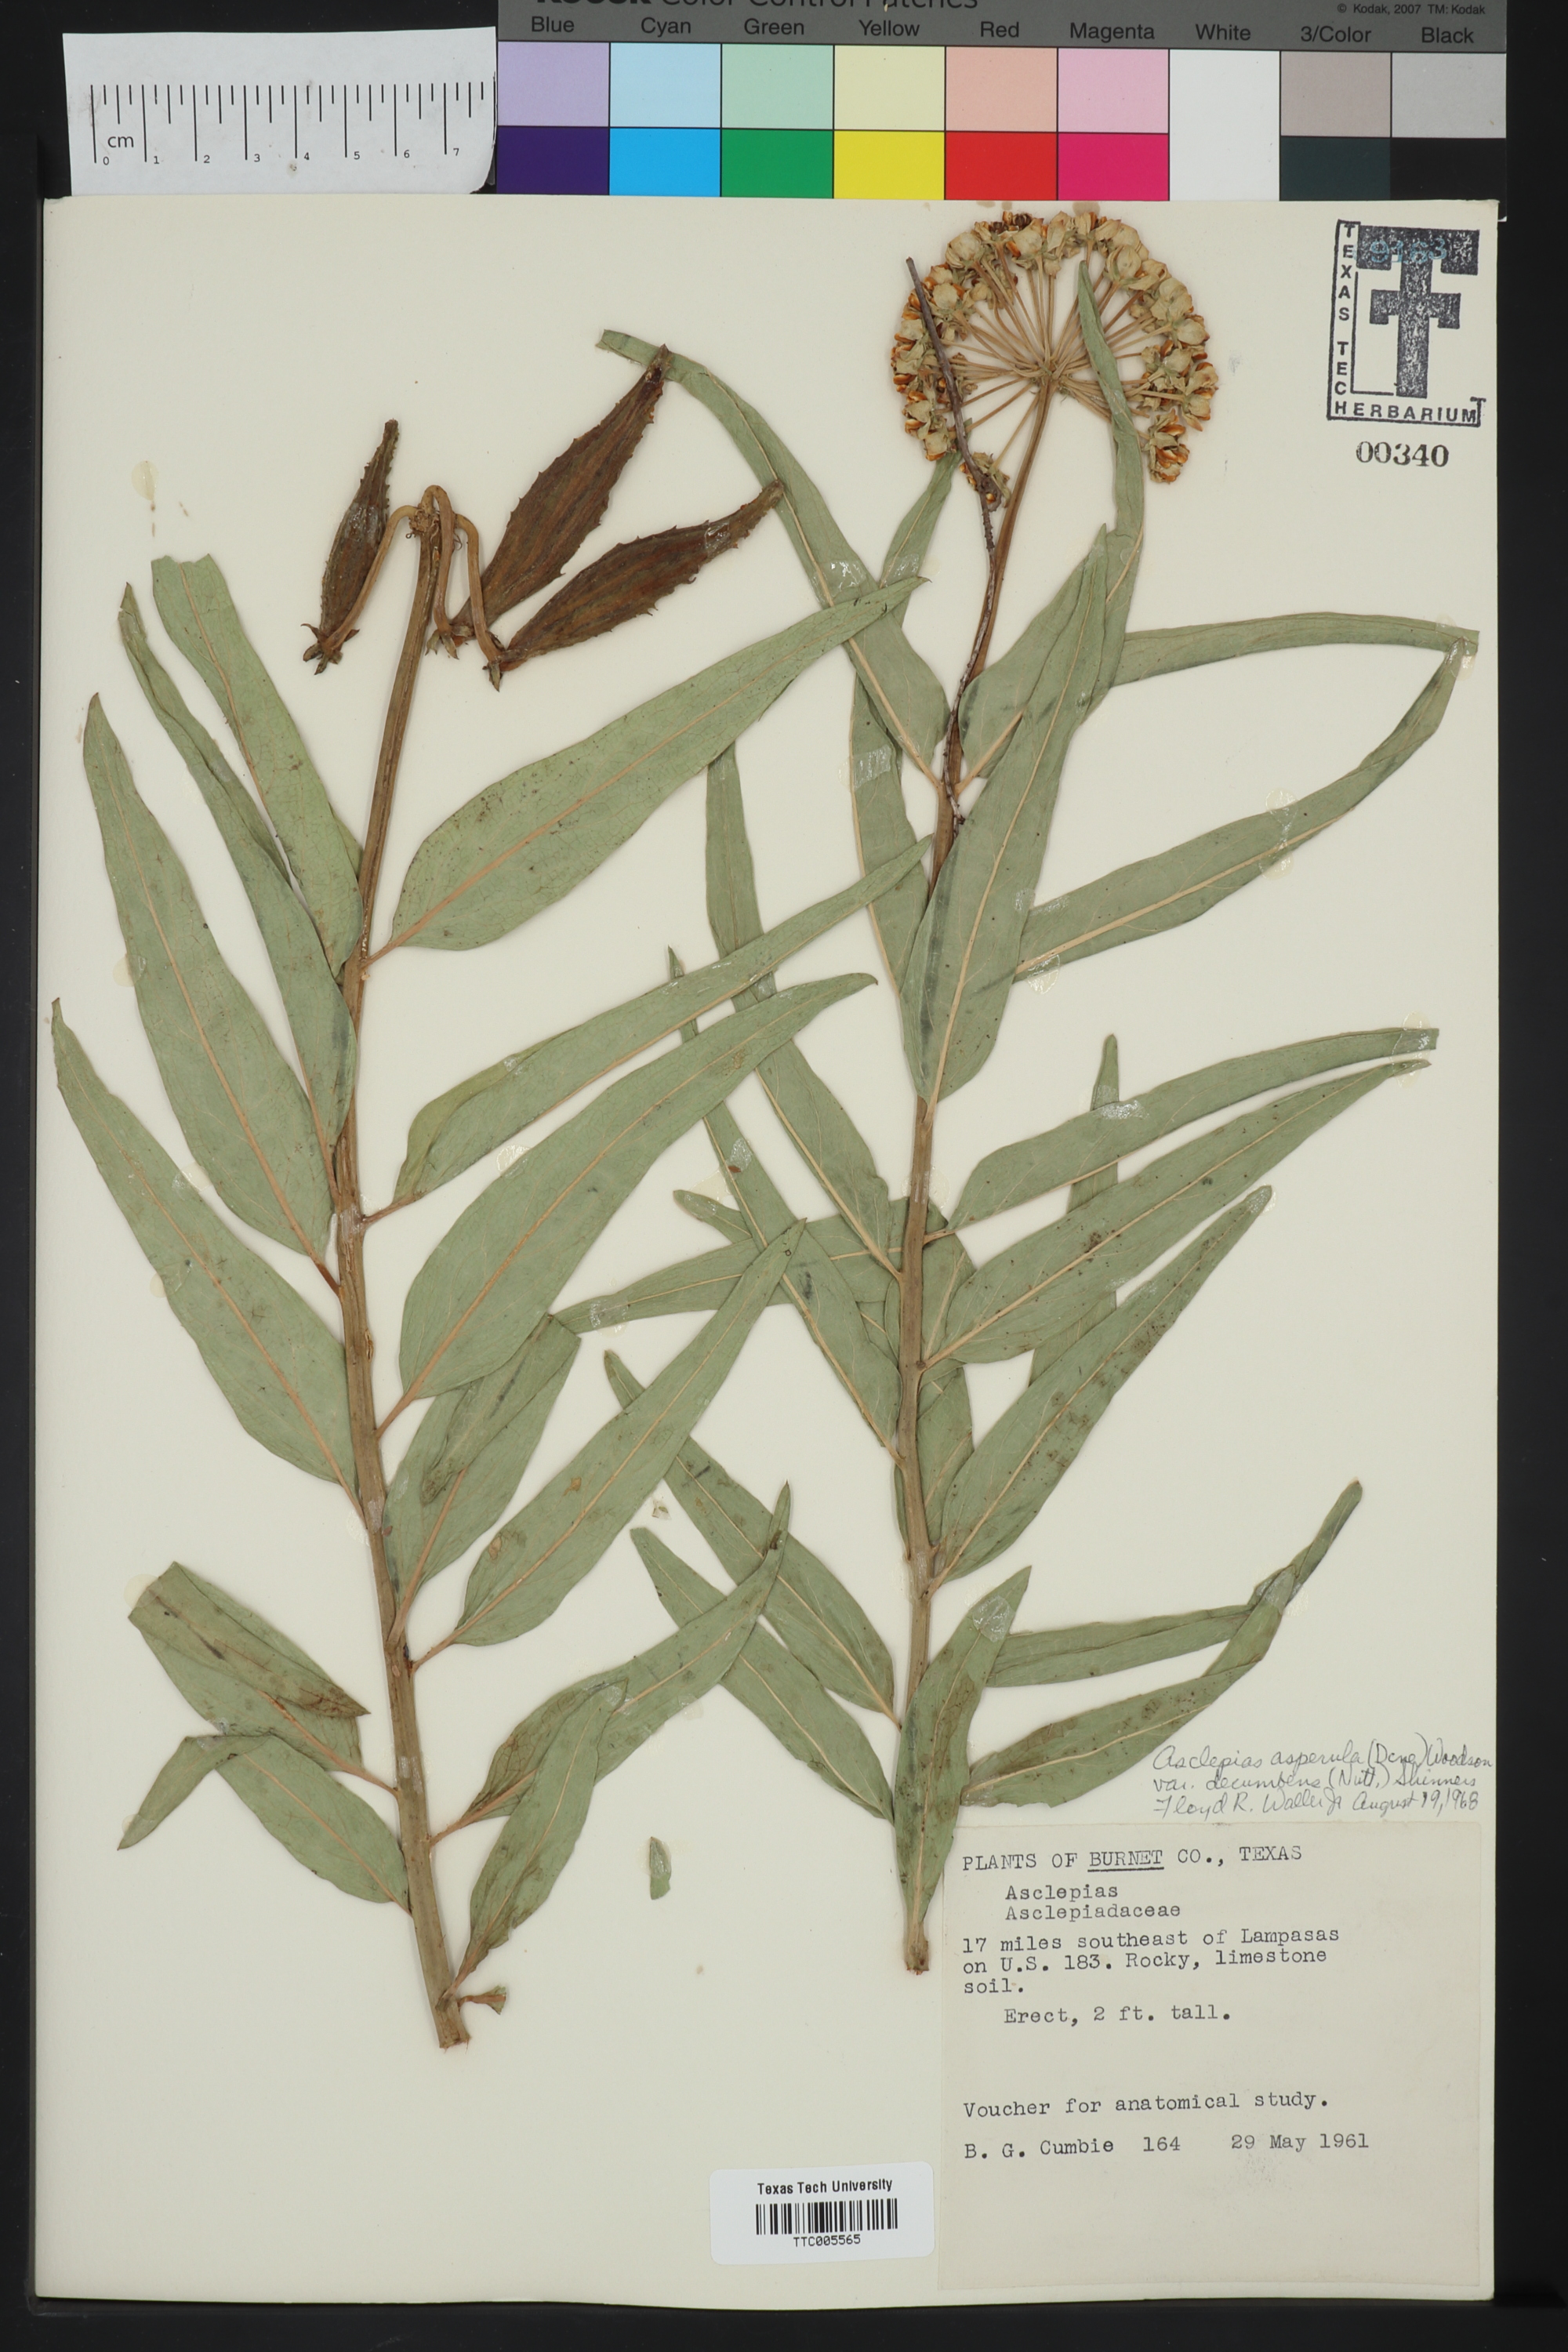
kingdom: Plantae
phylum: Tracheophyta
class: Magnoliopsida
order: Gentianales
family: Apocynaceae
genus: Asclepias
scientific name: Asclepias asperula
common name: Antelope horns
